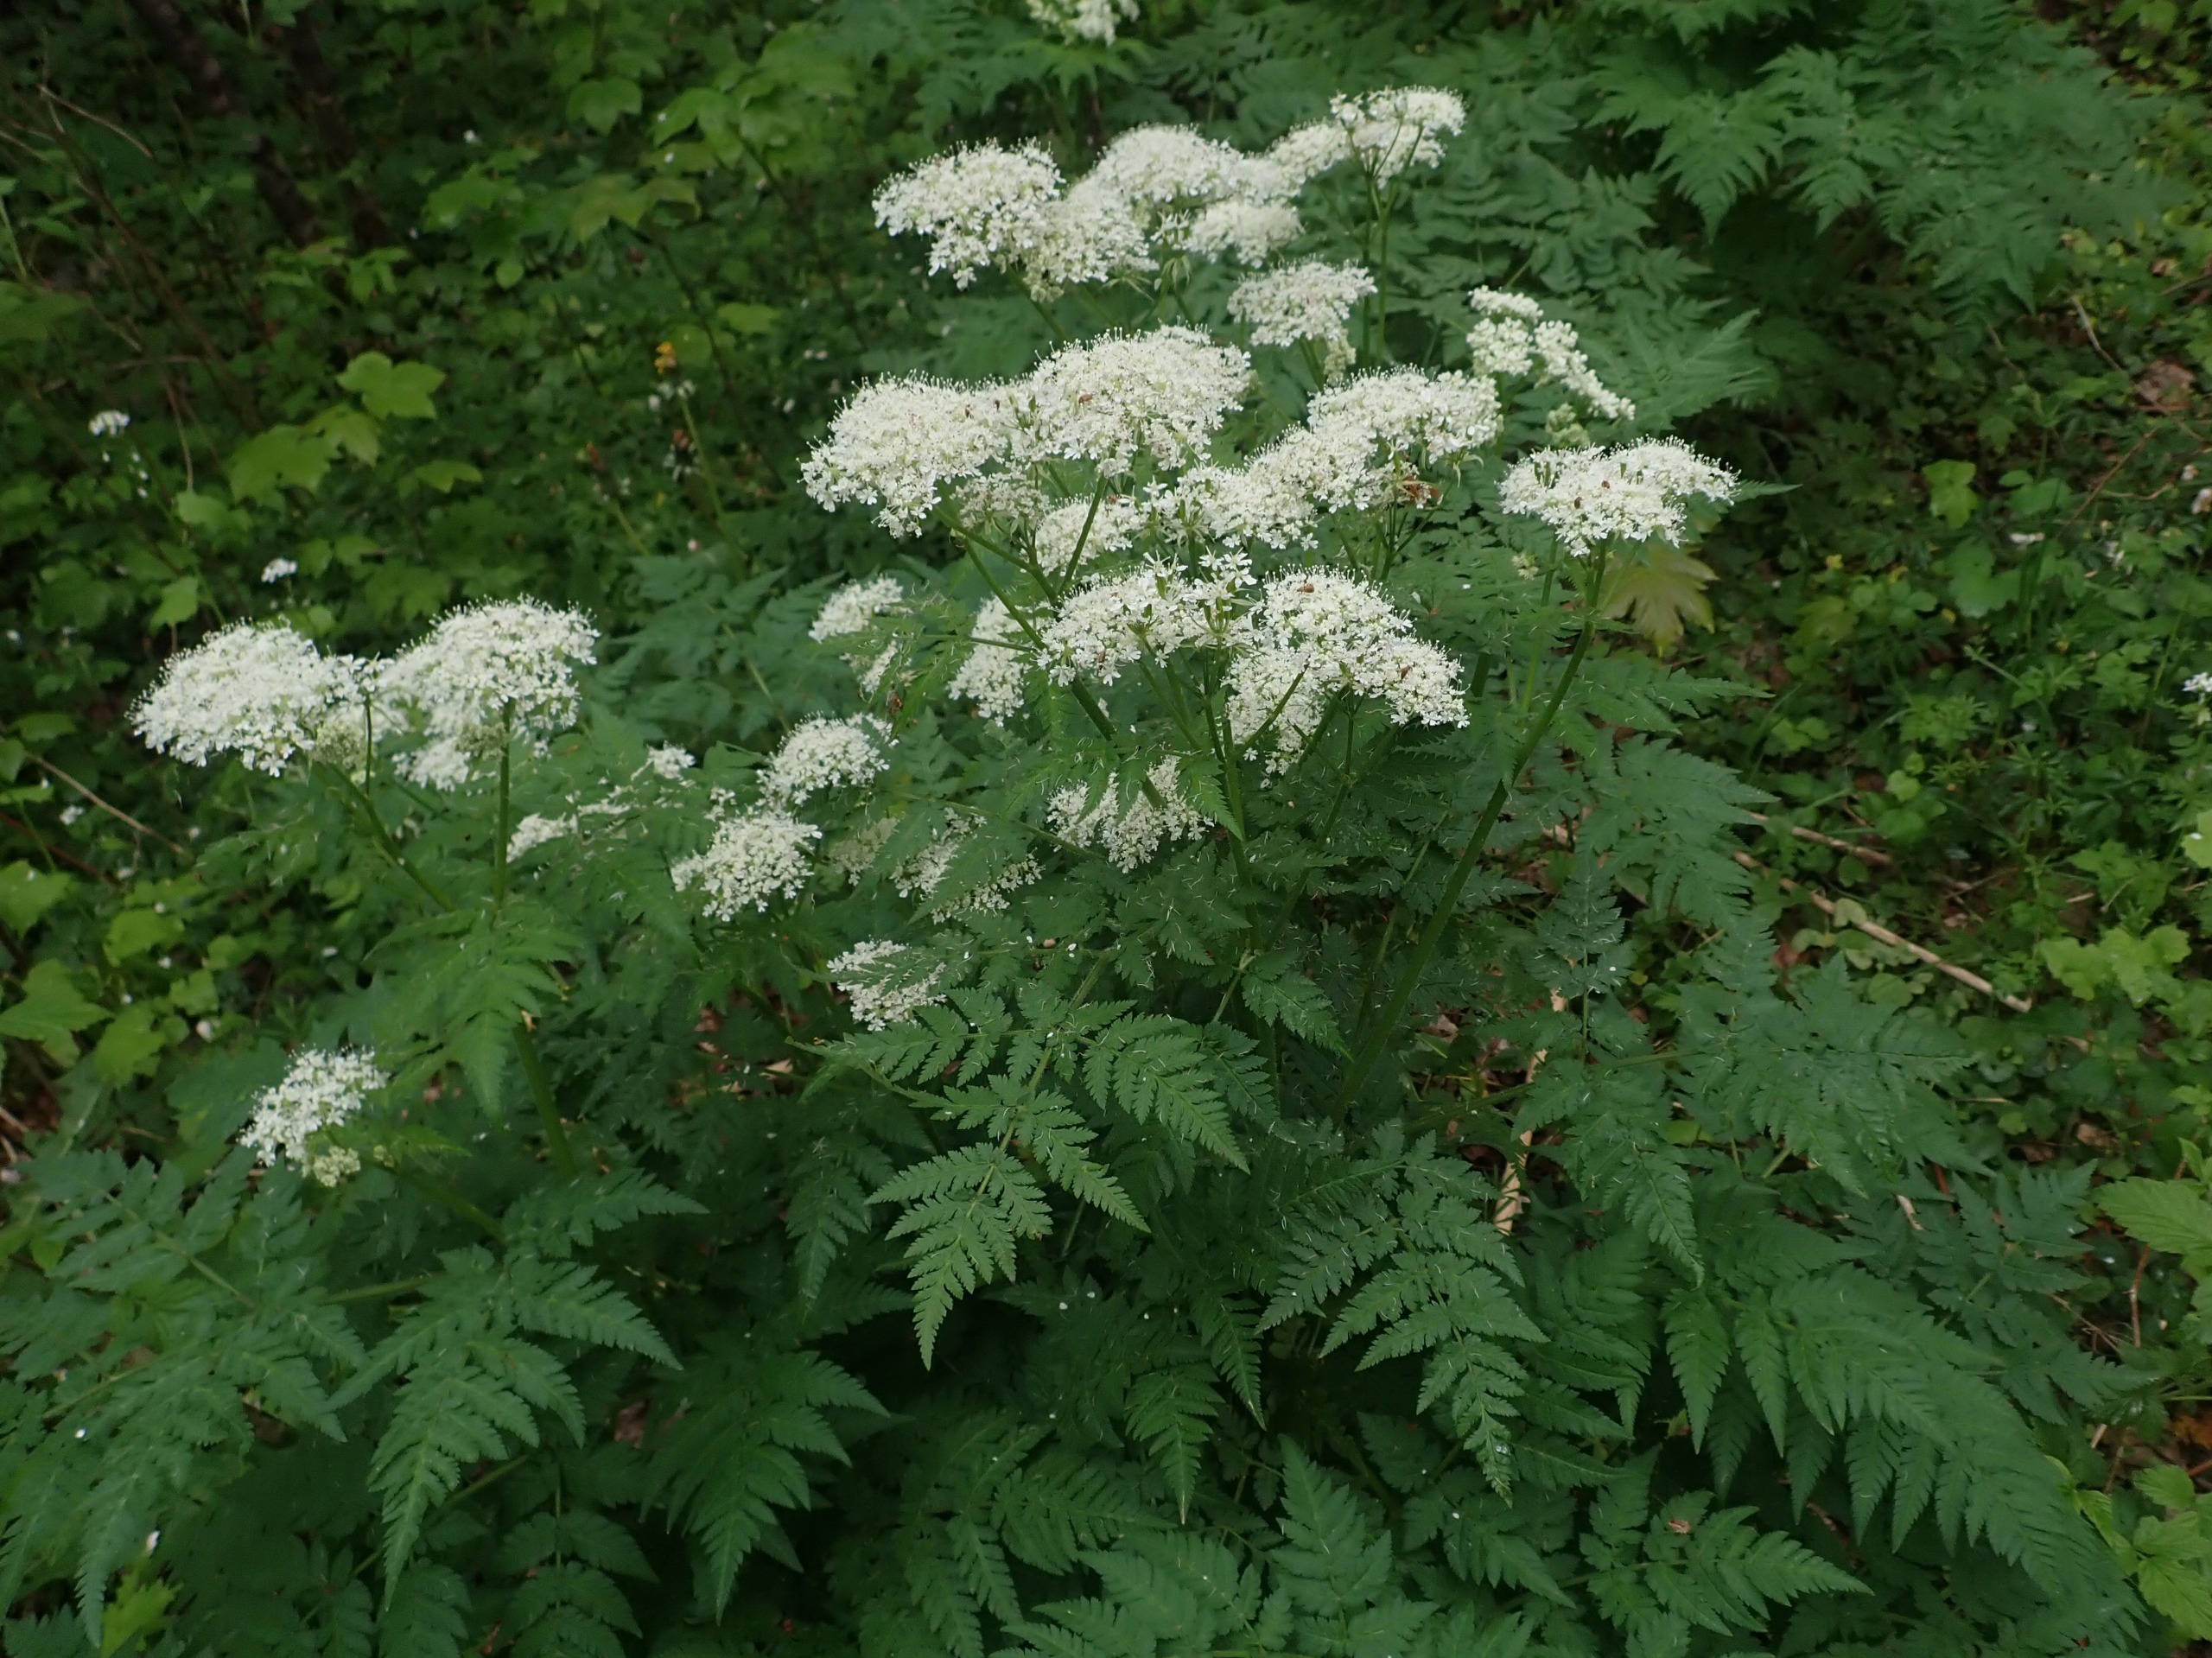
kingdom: Plantae
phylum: Tracheophyta
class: Magnoliopsida
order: Apiales
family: Apiaceae
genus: Myrrhis
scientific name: Myrrhis odorata
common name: Sødskærm
